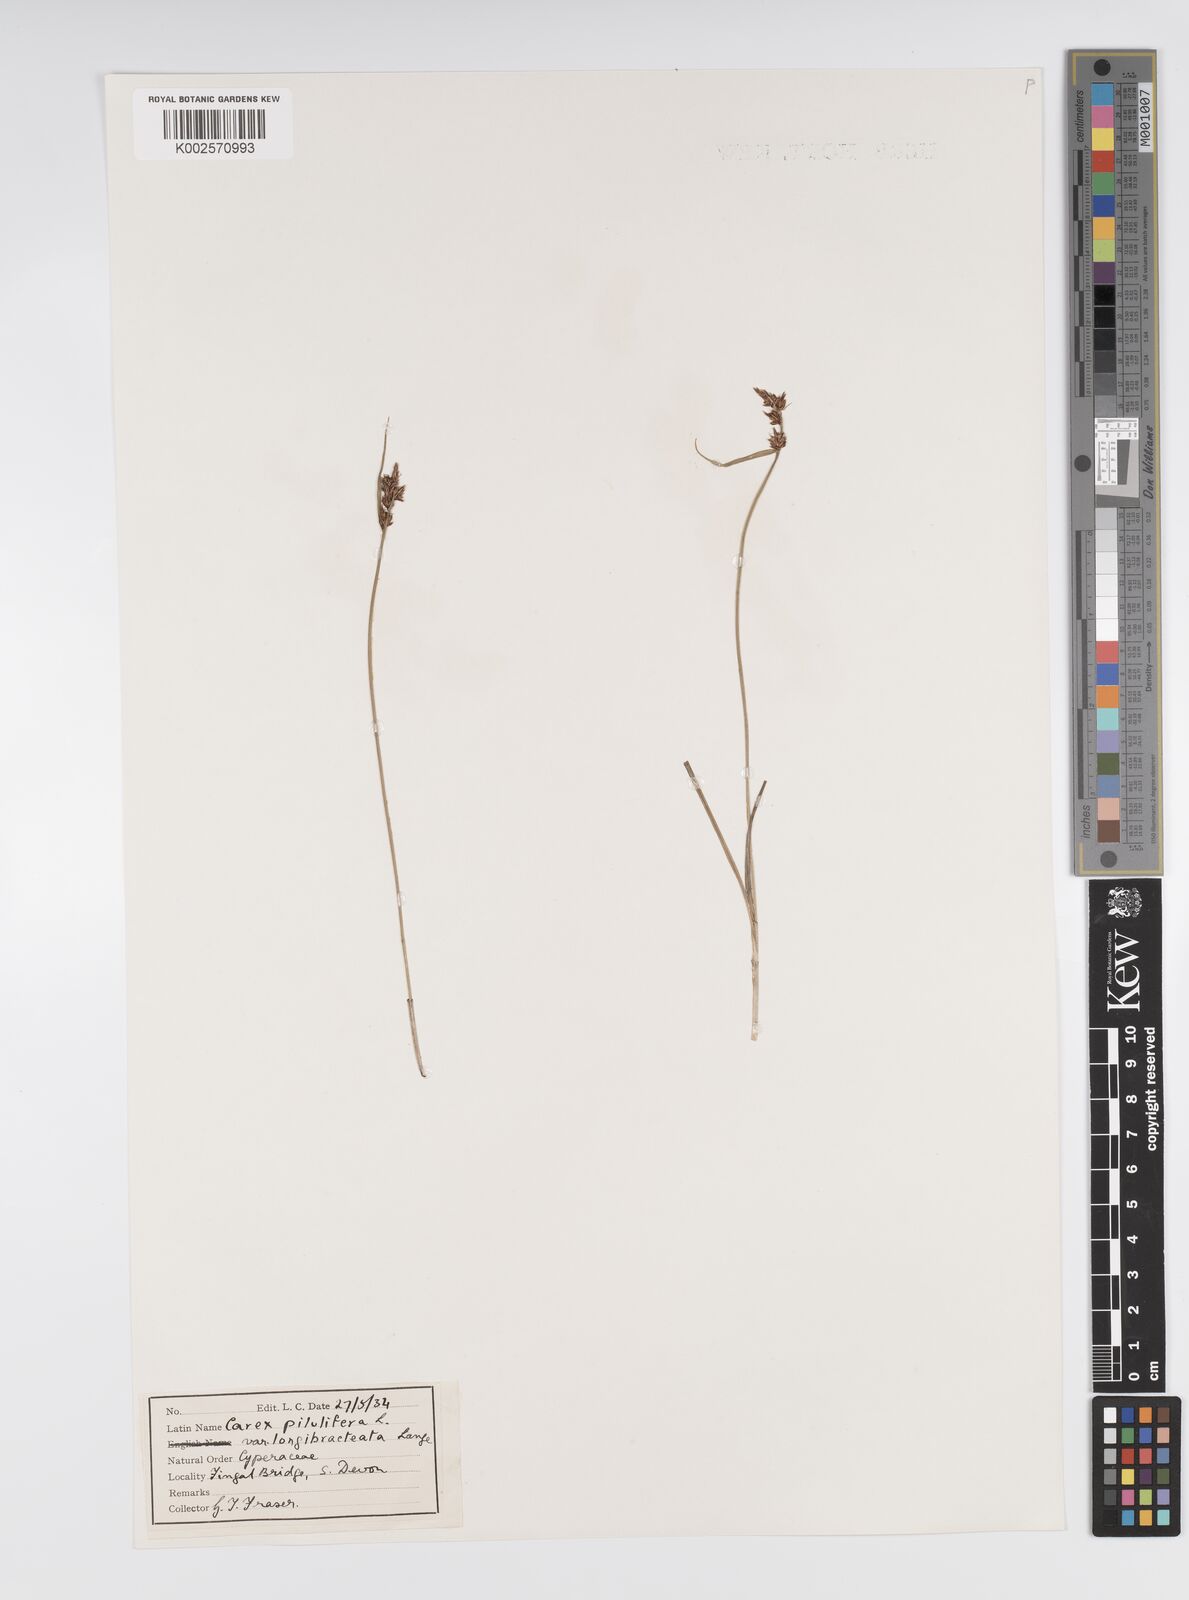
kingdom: Plantae
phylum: Tracheophyta
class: Liliopsida
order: Poales
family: Cyperaceae
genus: Carex
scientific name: Carex praecox
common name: Early sedge
